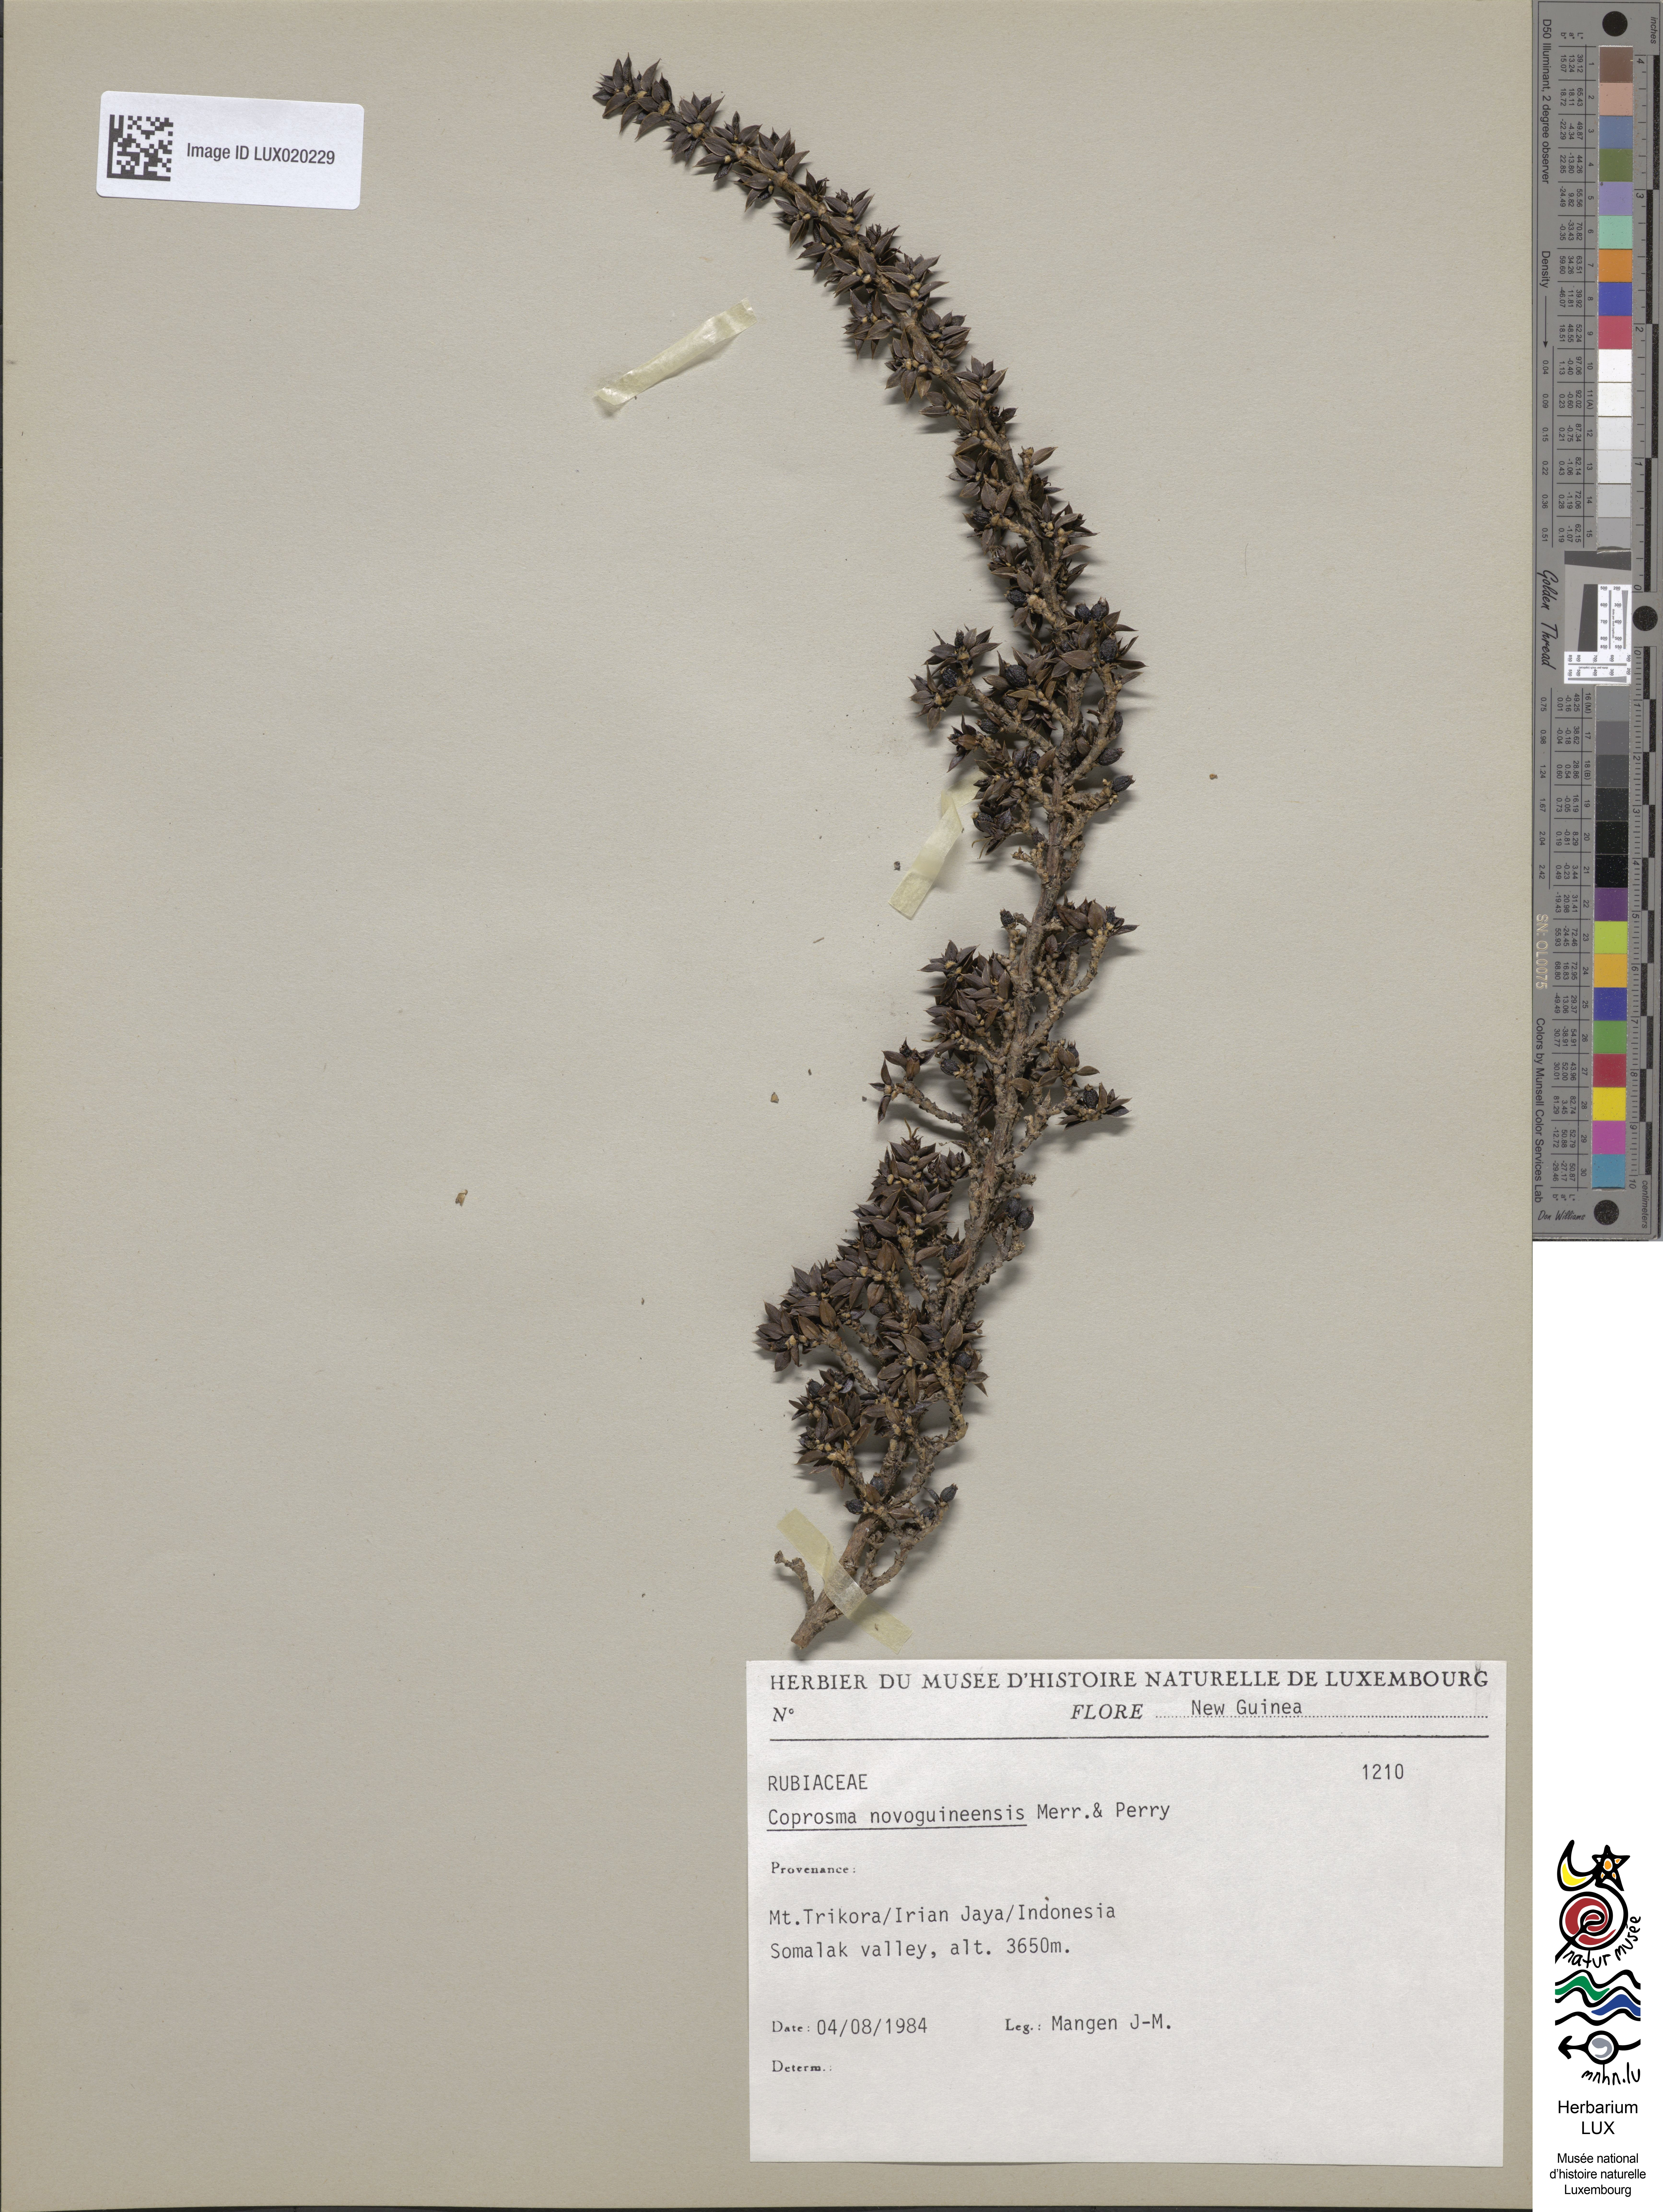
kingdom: Plantae
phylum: Tracheophyta
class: Magnoliopsida
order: Gentianales
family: Rubiaceae
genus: Coprosma
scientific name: Coprosma wollastonii
